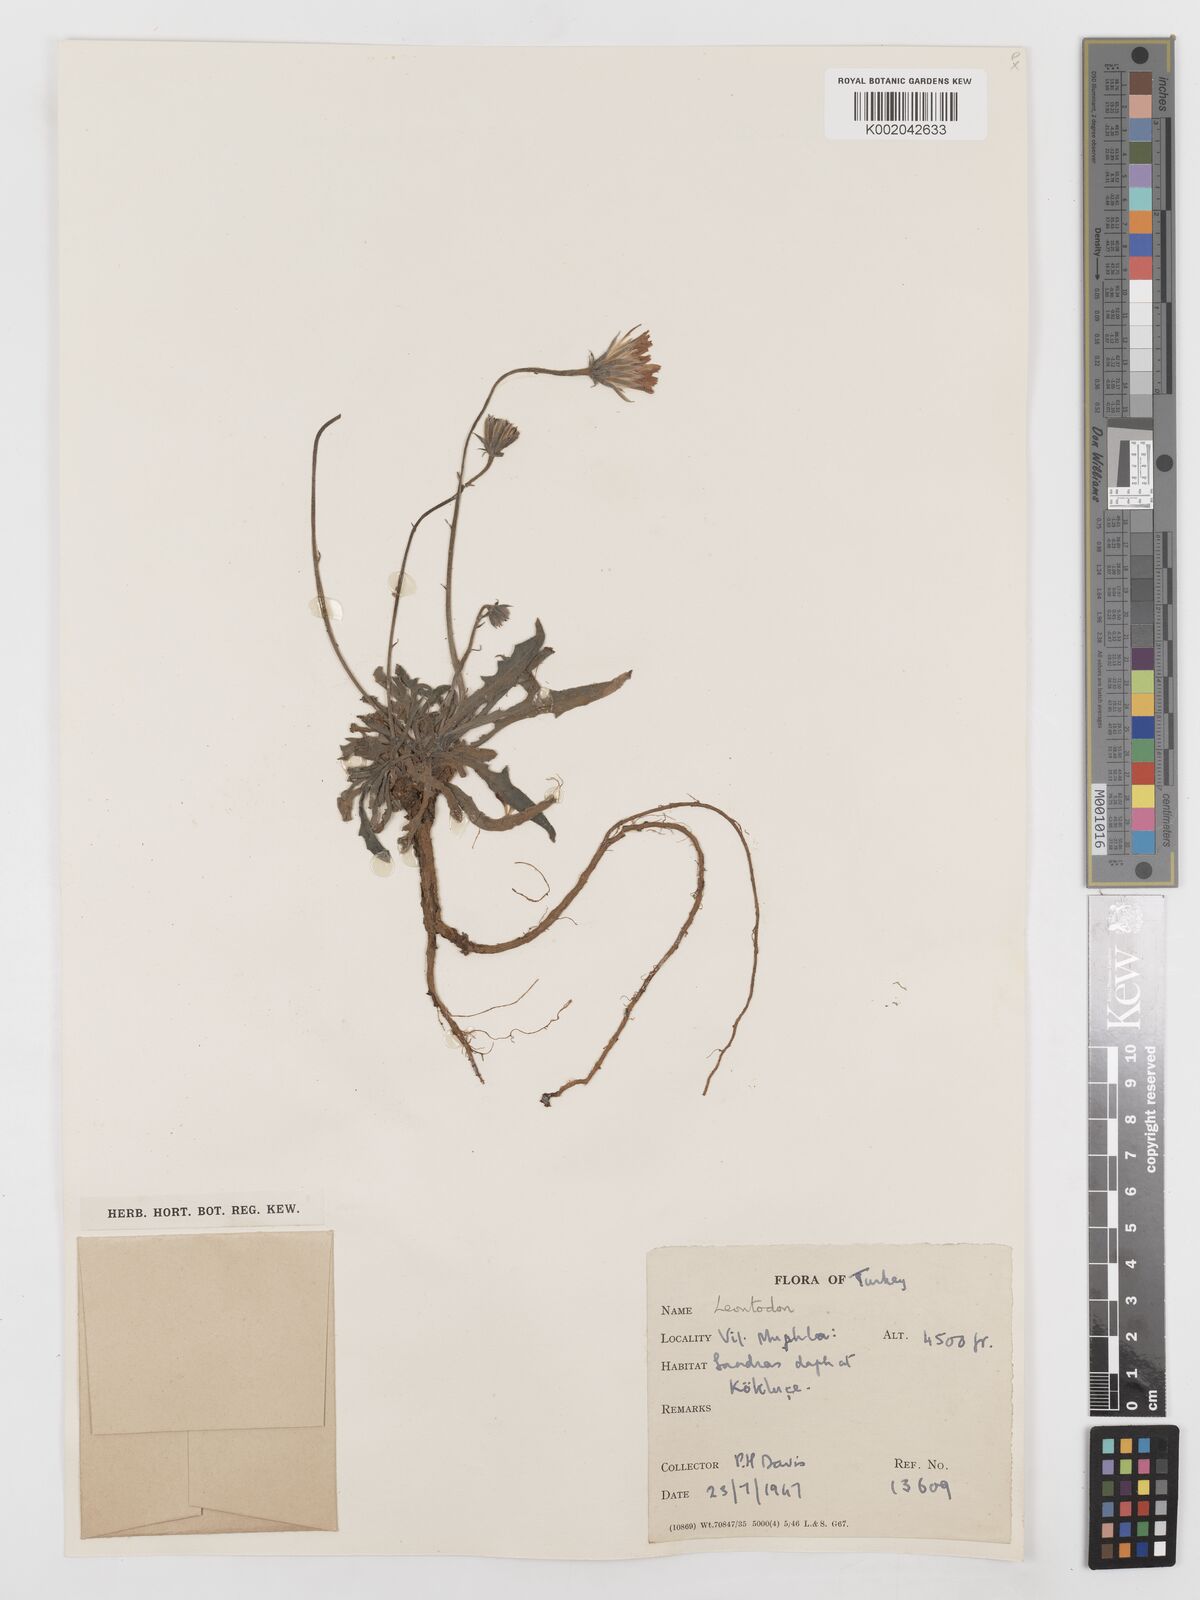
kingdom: Plantae
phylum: Tracheophyta
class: Magnoliopsida
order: Asterales
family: Asteraceae
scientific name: Asteraceae
